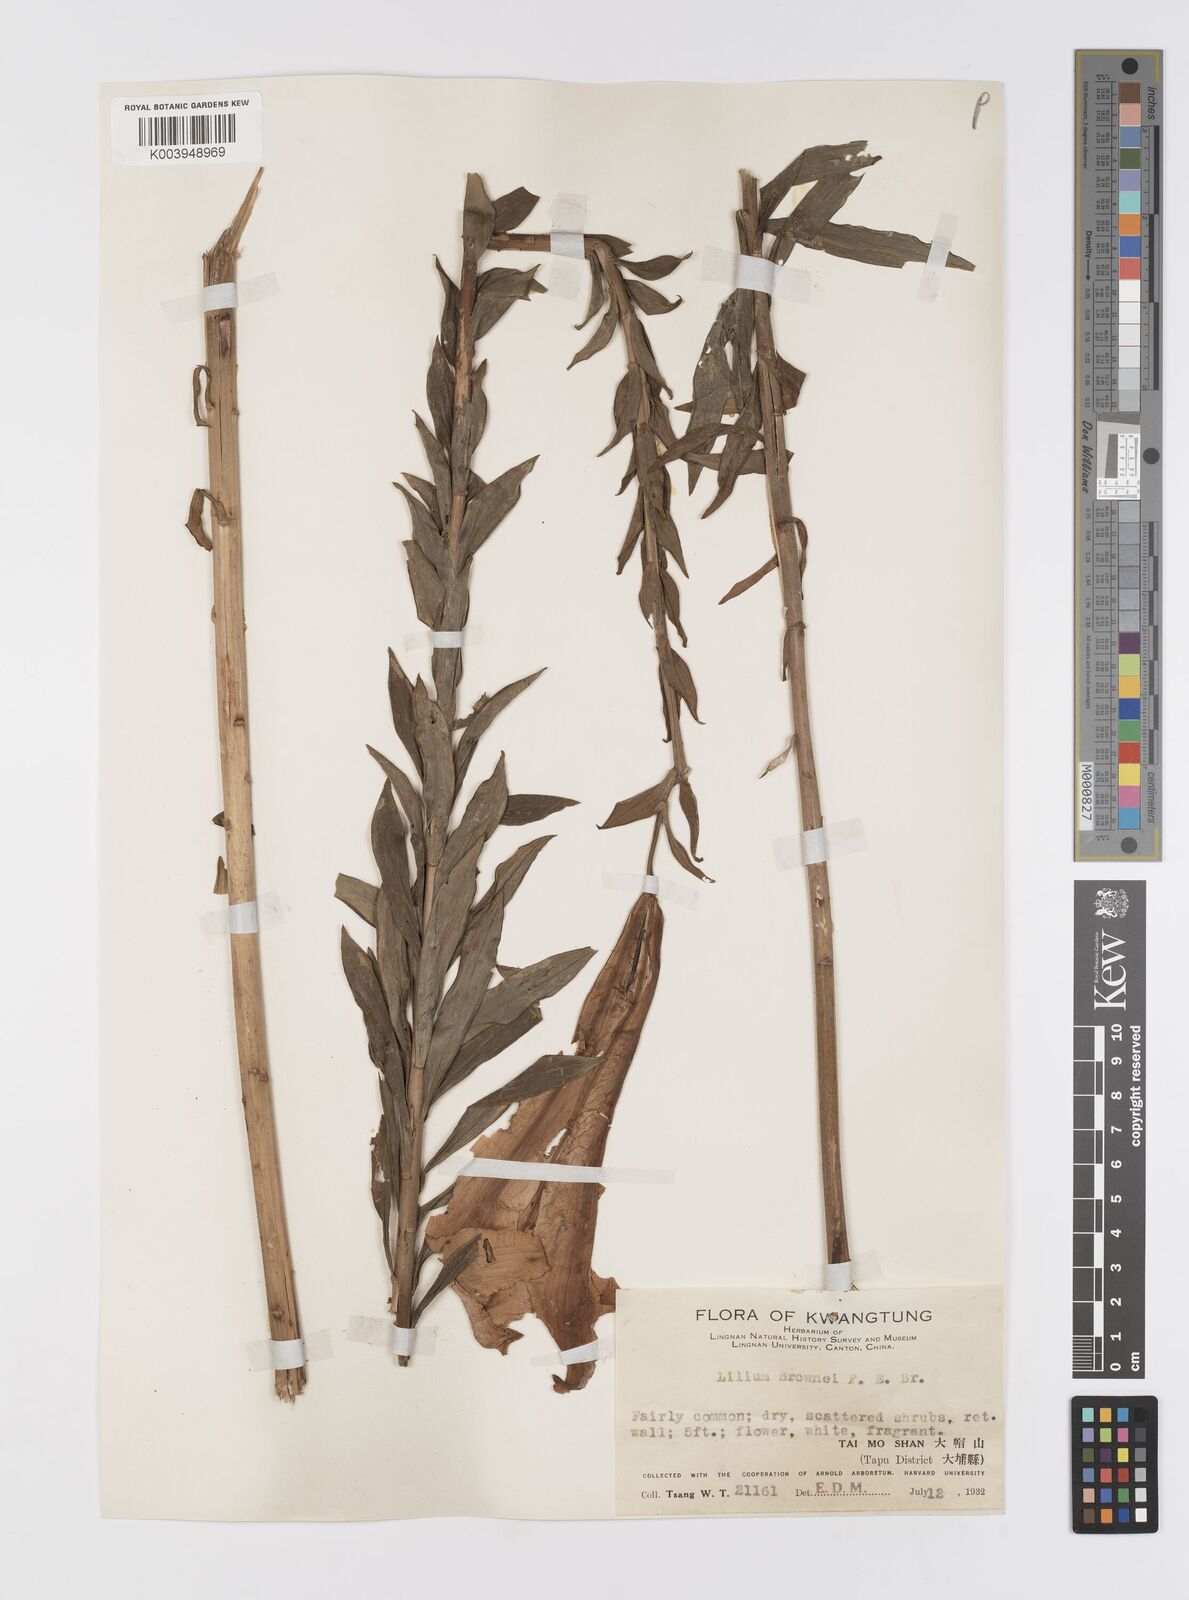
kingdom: Plantae
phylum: Tracheophyta
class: Liliopsida
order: Liliales
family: Liliaceae
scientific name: Liliaceae
